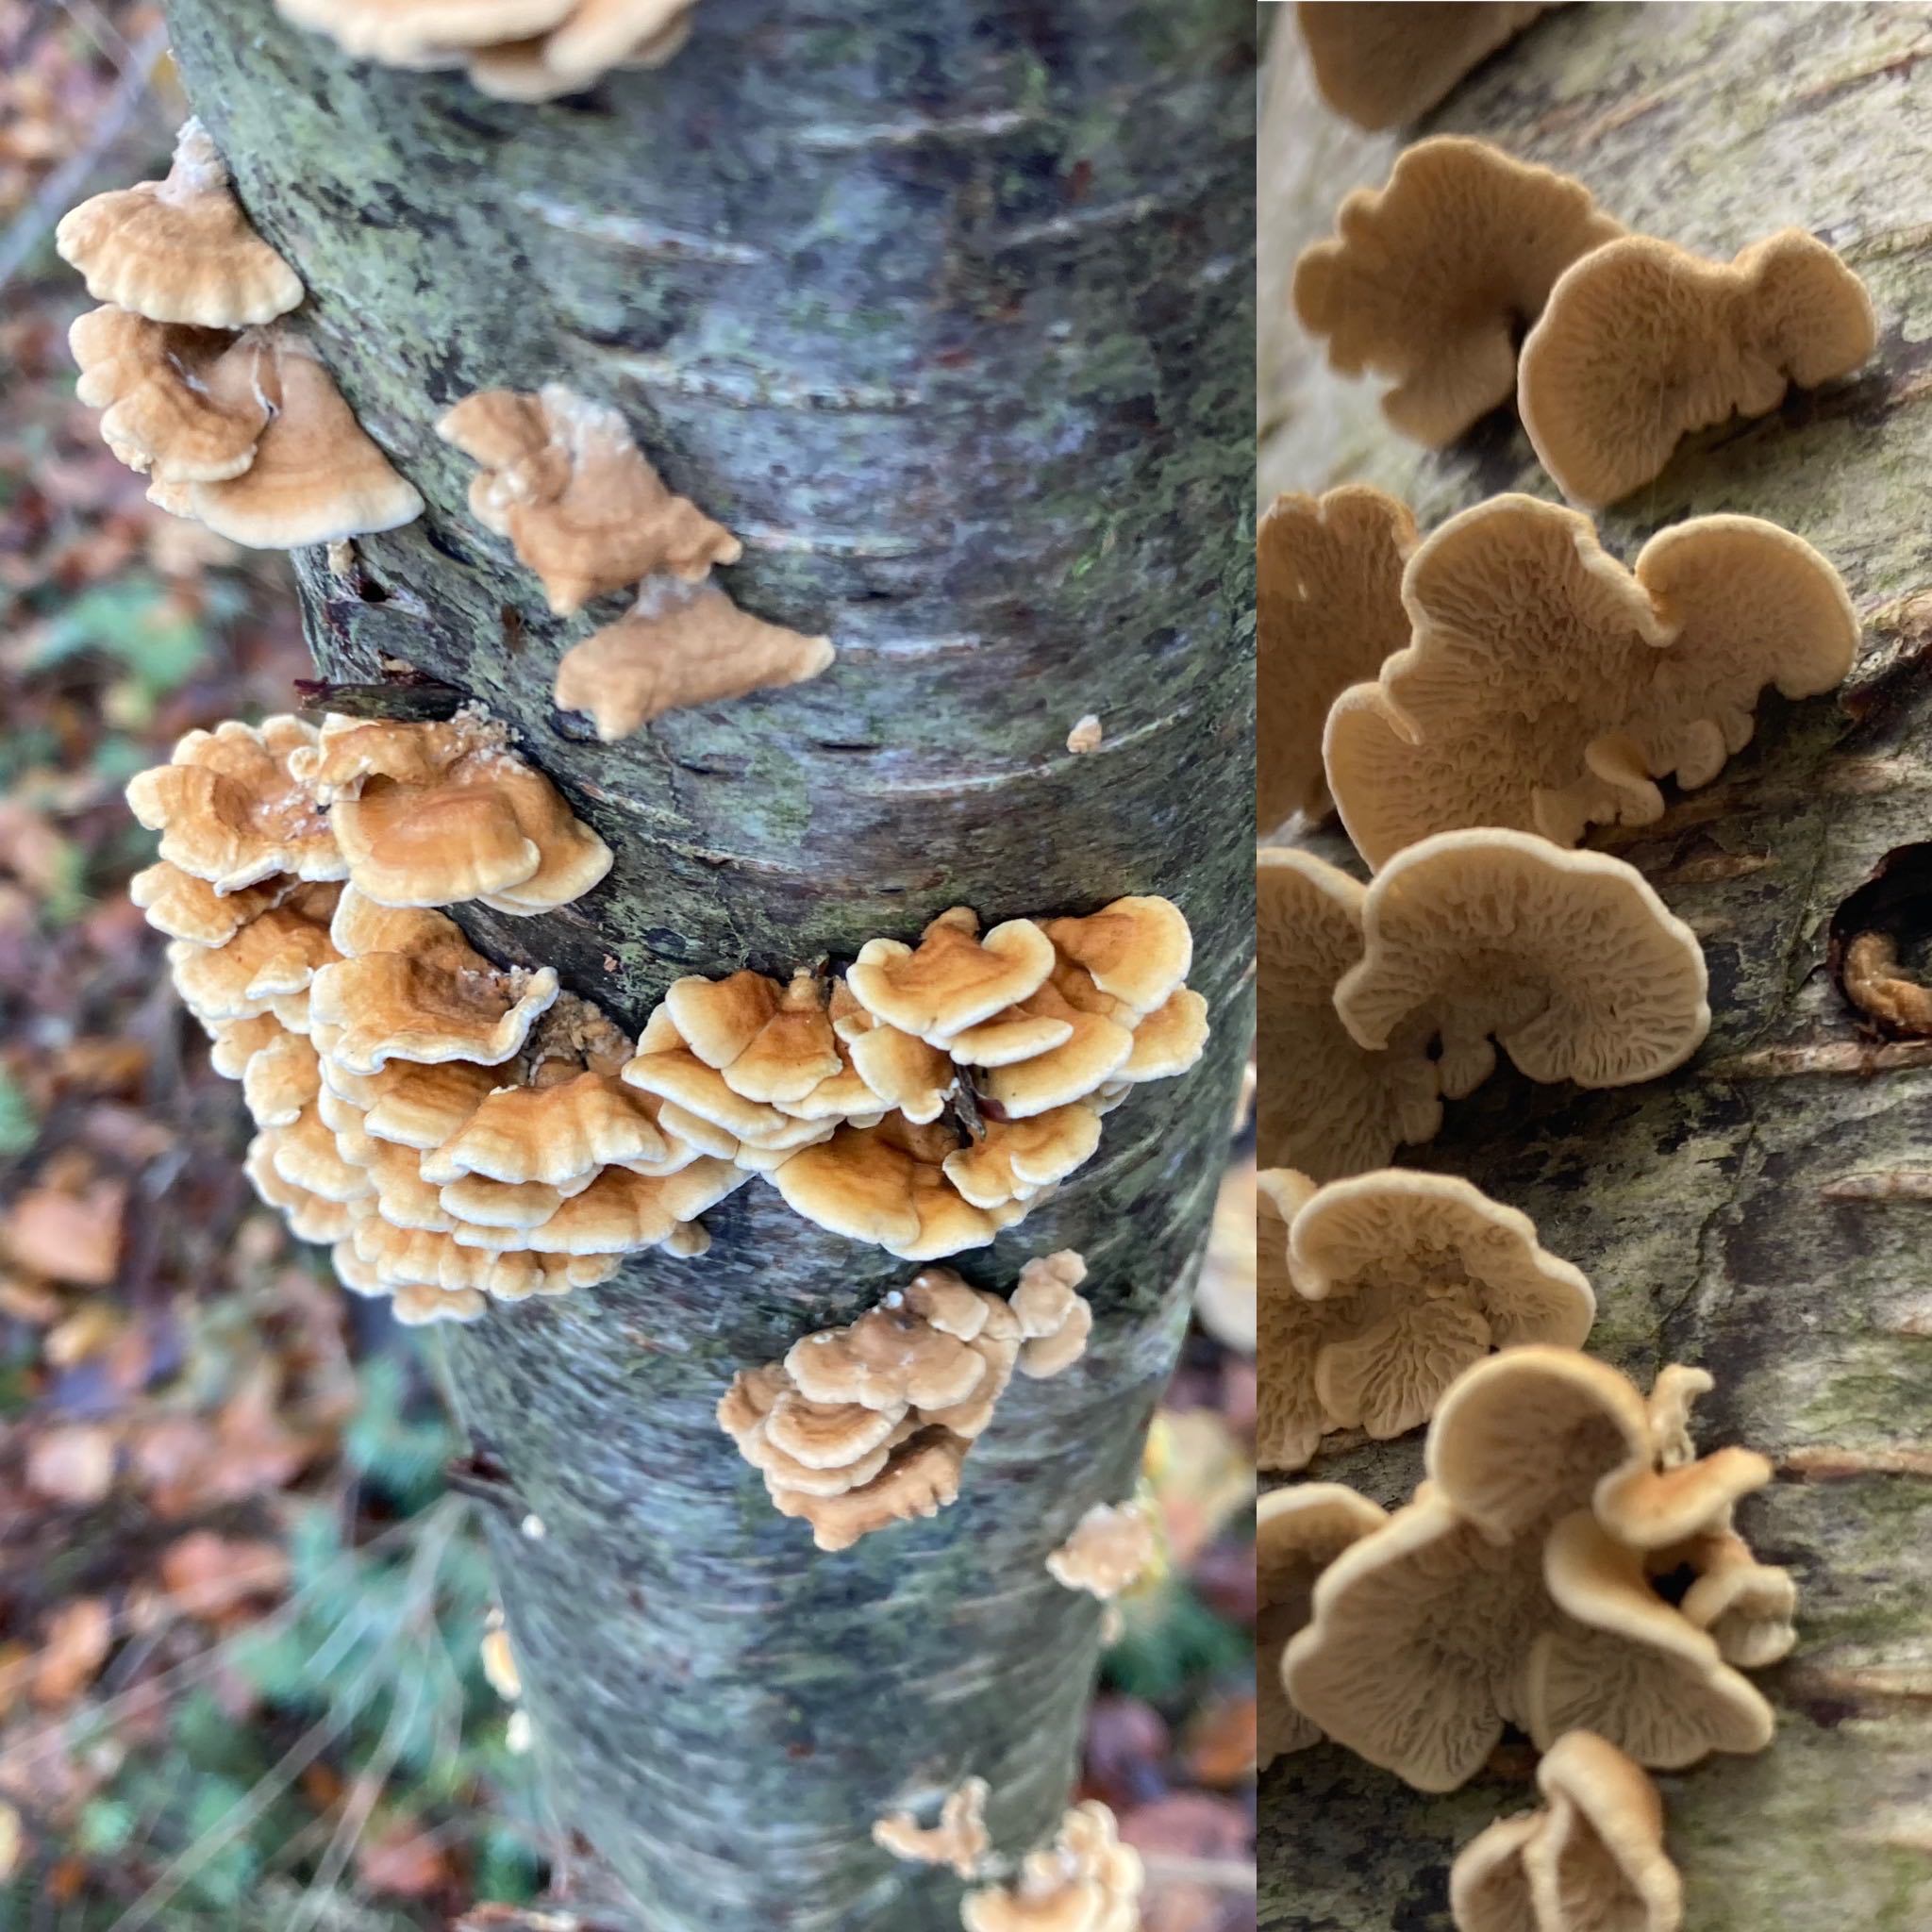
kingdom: Fungi
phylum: Basidiomycota
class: Agaricomycetes
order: Amylocorticiales
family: Amylocorticiaceae
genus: Plicaturopsis
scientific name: Plicaturopsis crispa
